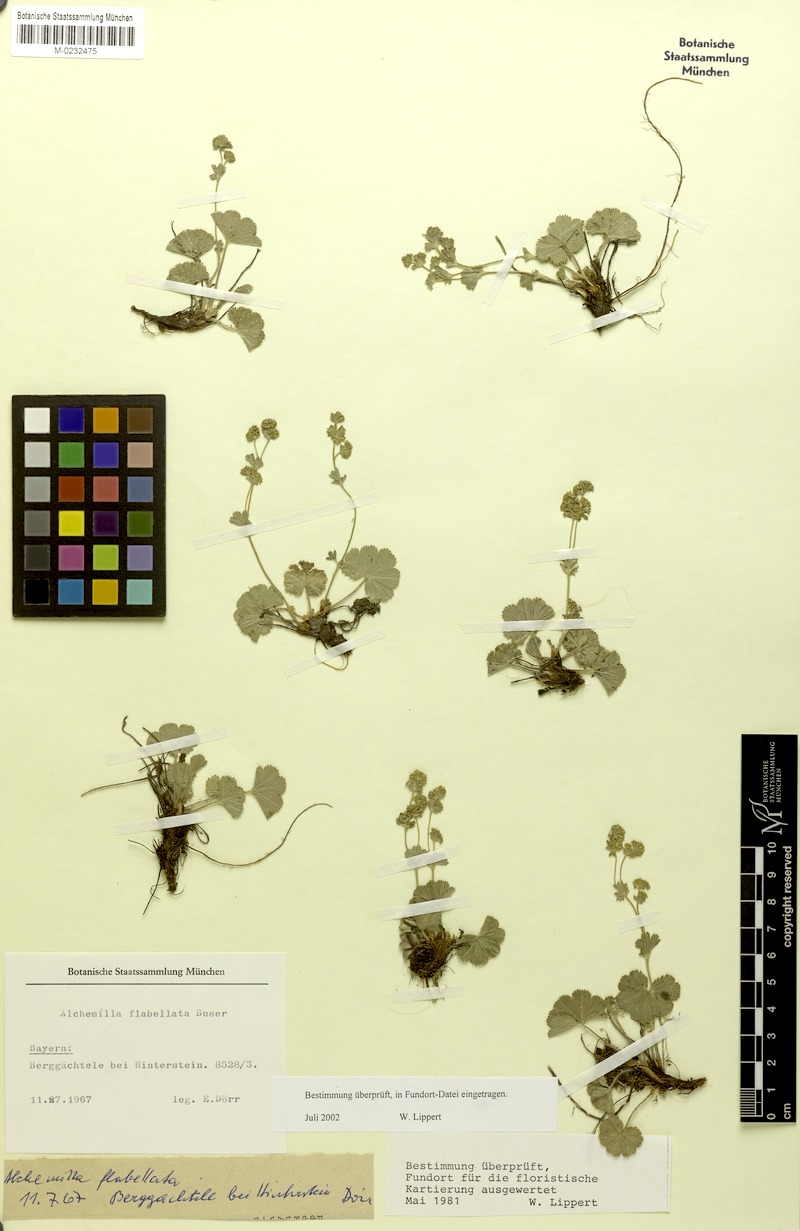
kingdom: Plantae
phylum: Tracheophyta
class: Magnoliopsida
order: Rosales
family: Rosaceae
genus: Alchemilla
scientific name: Alchemilla flabellata
